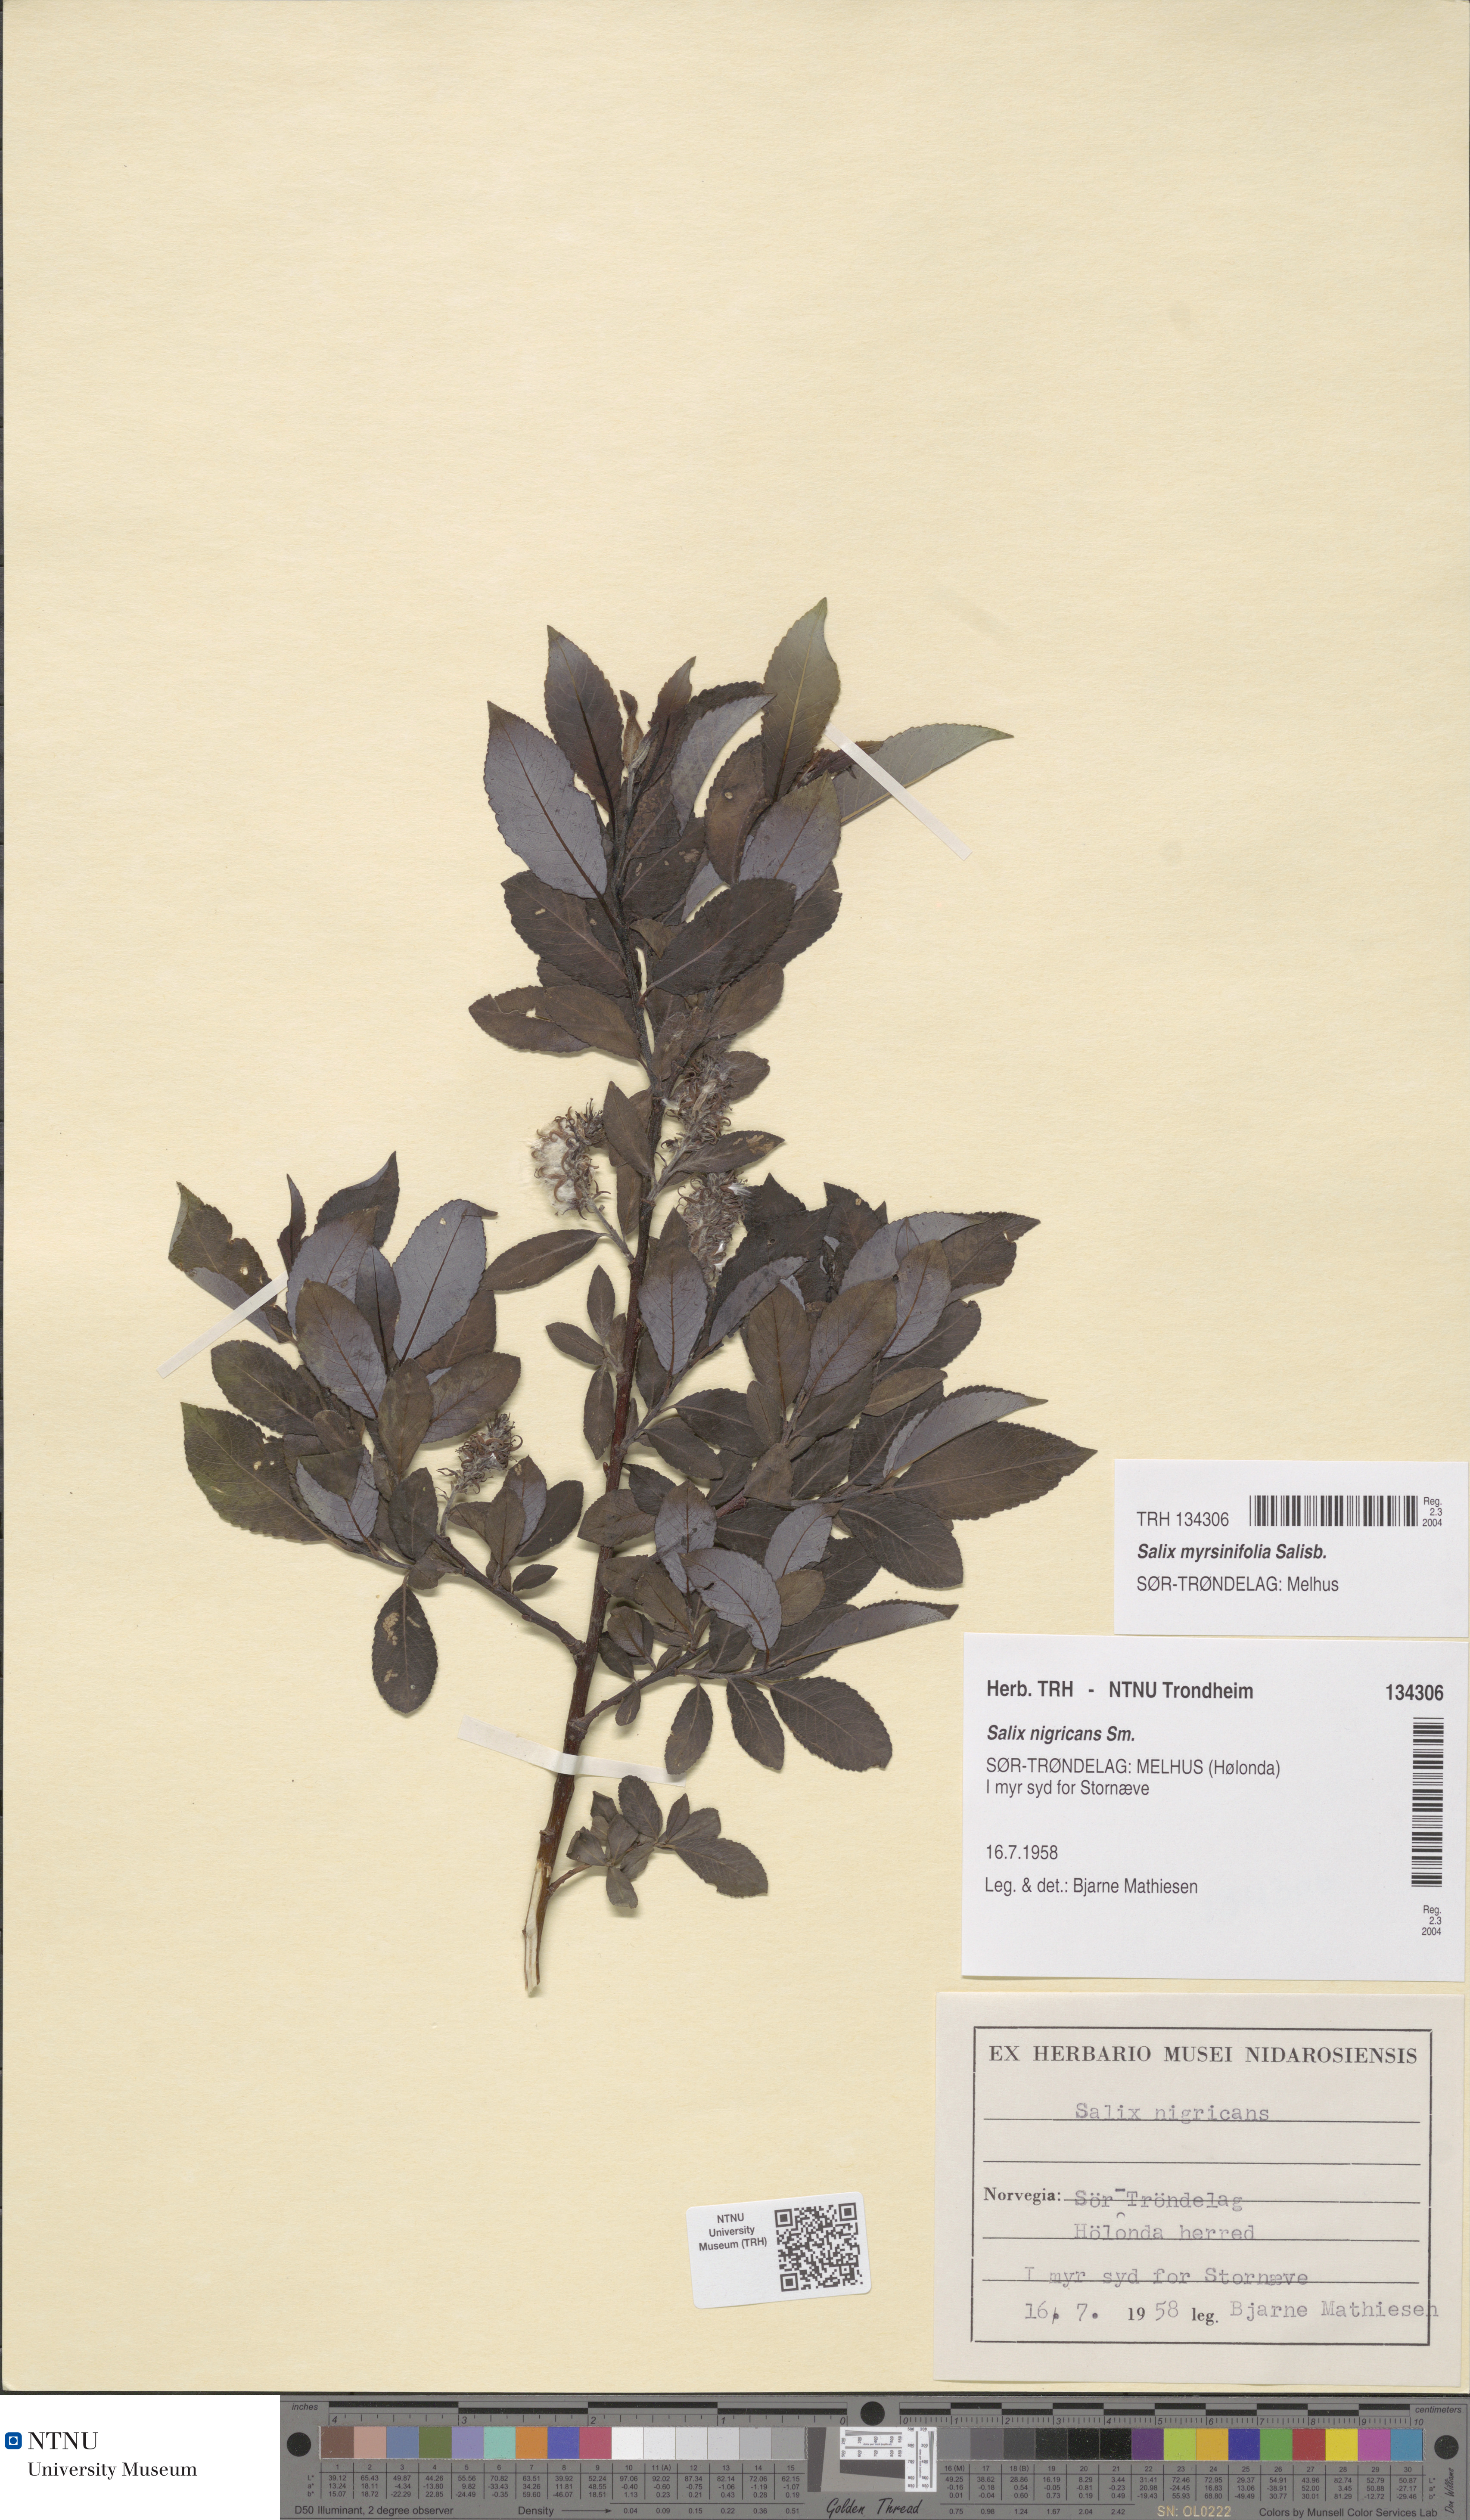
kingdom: Plantae
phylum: Tracheophyta
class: Magnoliopsida
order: Malpighiales
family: Salicaceae
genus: Salix
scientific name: Salix myrsinifolia
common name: Dark-leaved willow
